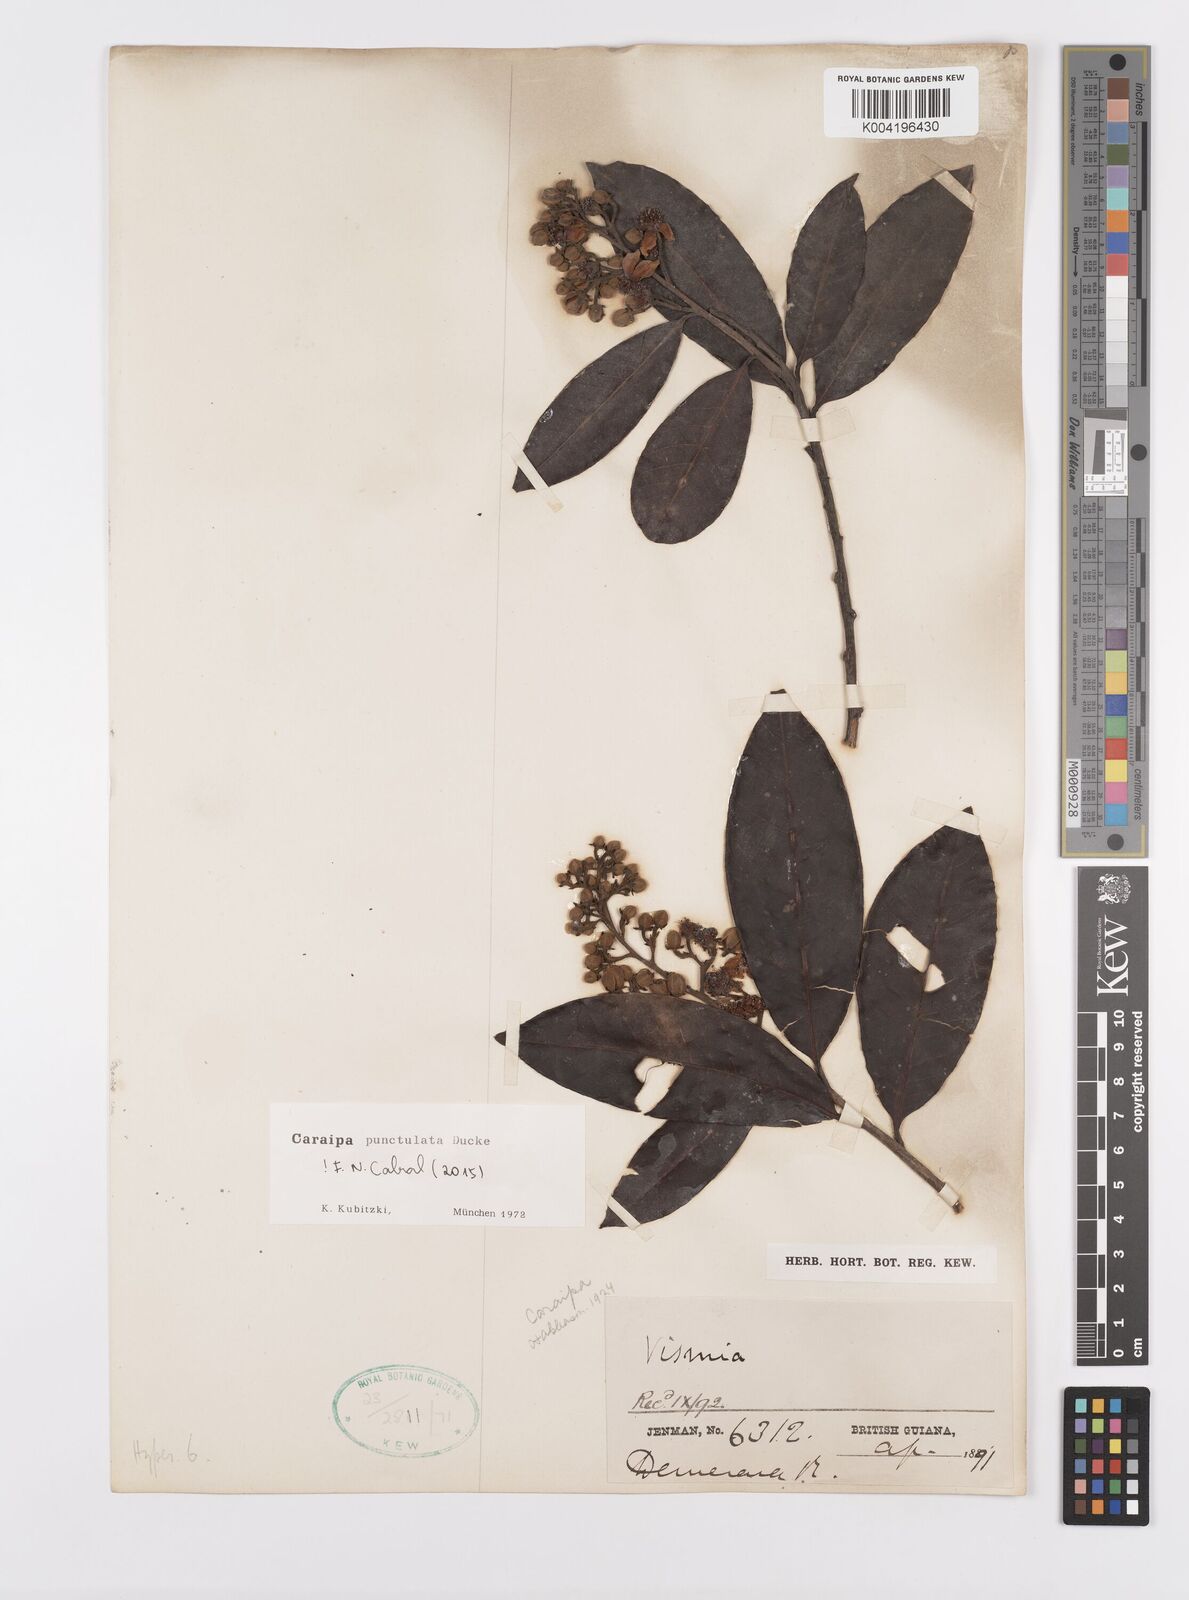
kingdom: Plantae
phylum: Tracheophyta
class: Magnoliopsida
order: Malpighiales
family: Calophyllaceae
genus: Caraipa
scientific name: Caraipa punctulata
